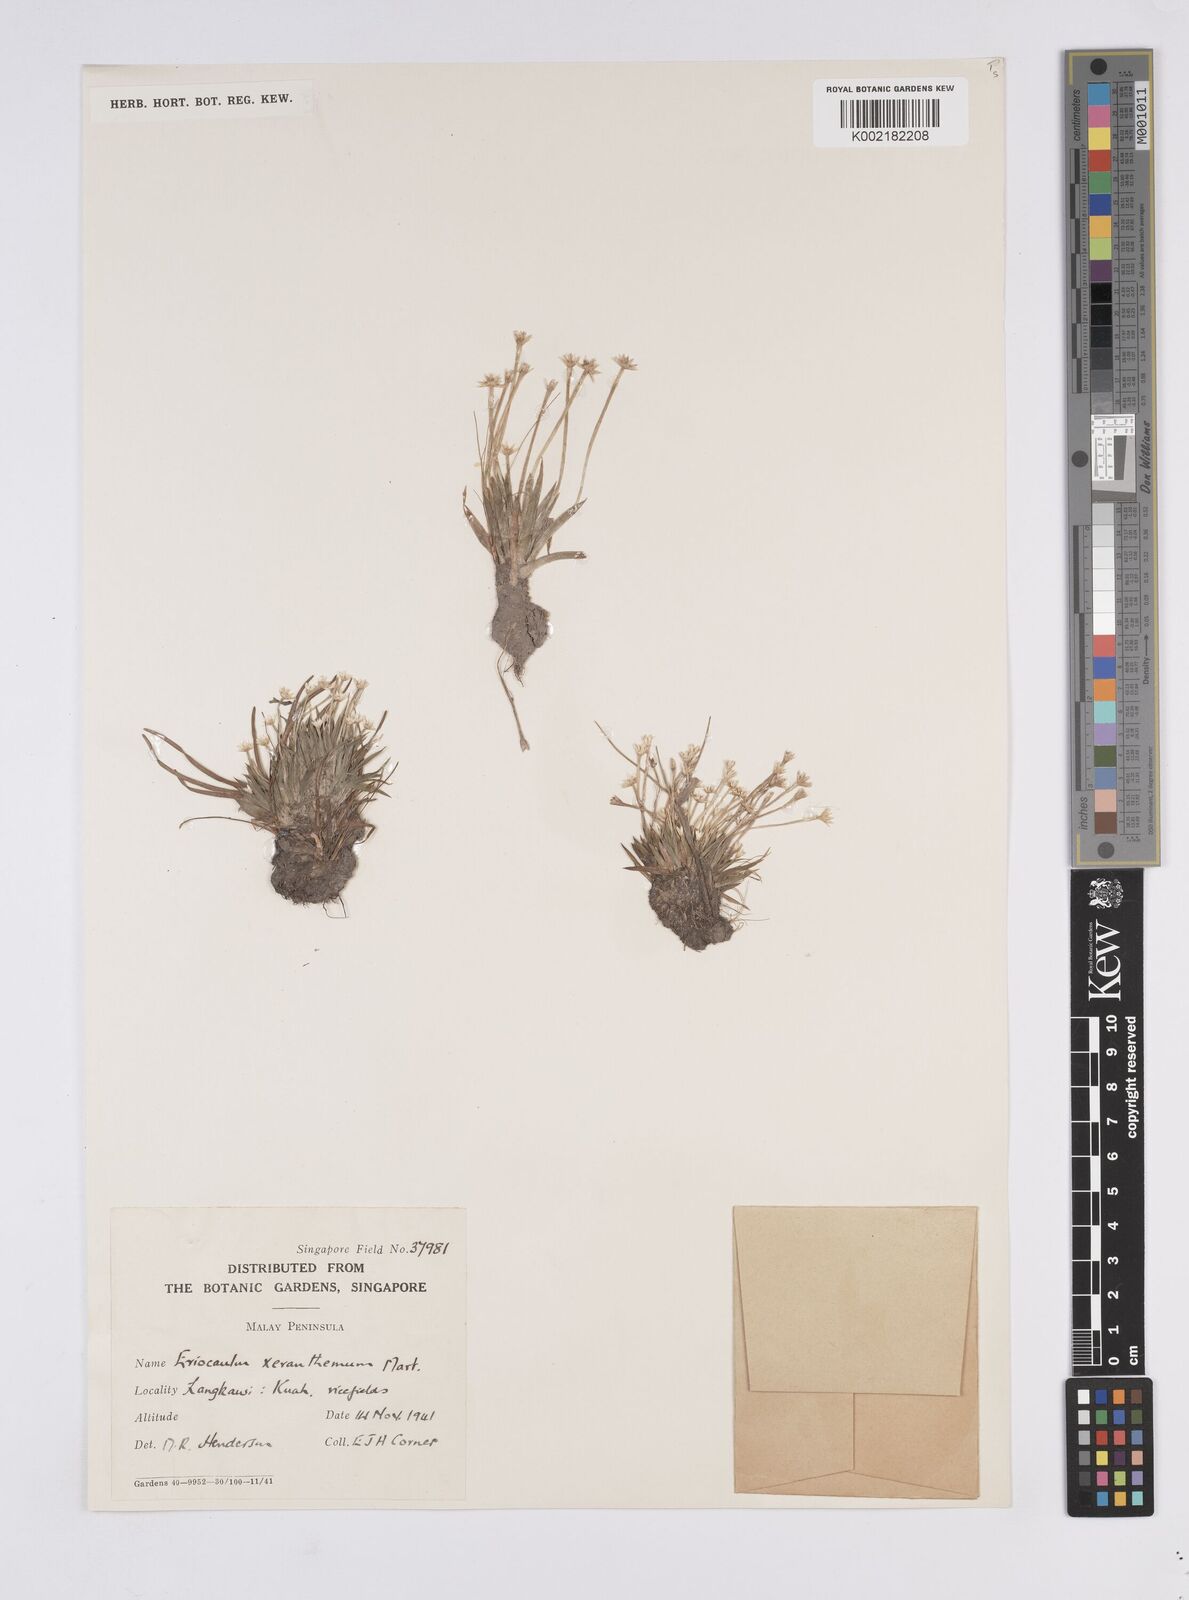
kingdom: Plantae
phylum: Tracheophyta
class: Liliopsida
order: Poales
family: Eriocaulaceae
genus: Eriocaulon
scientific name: Eriocaulon xeranthemum
